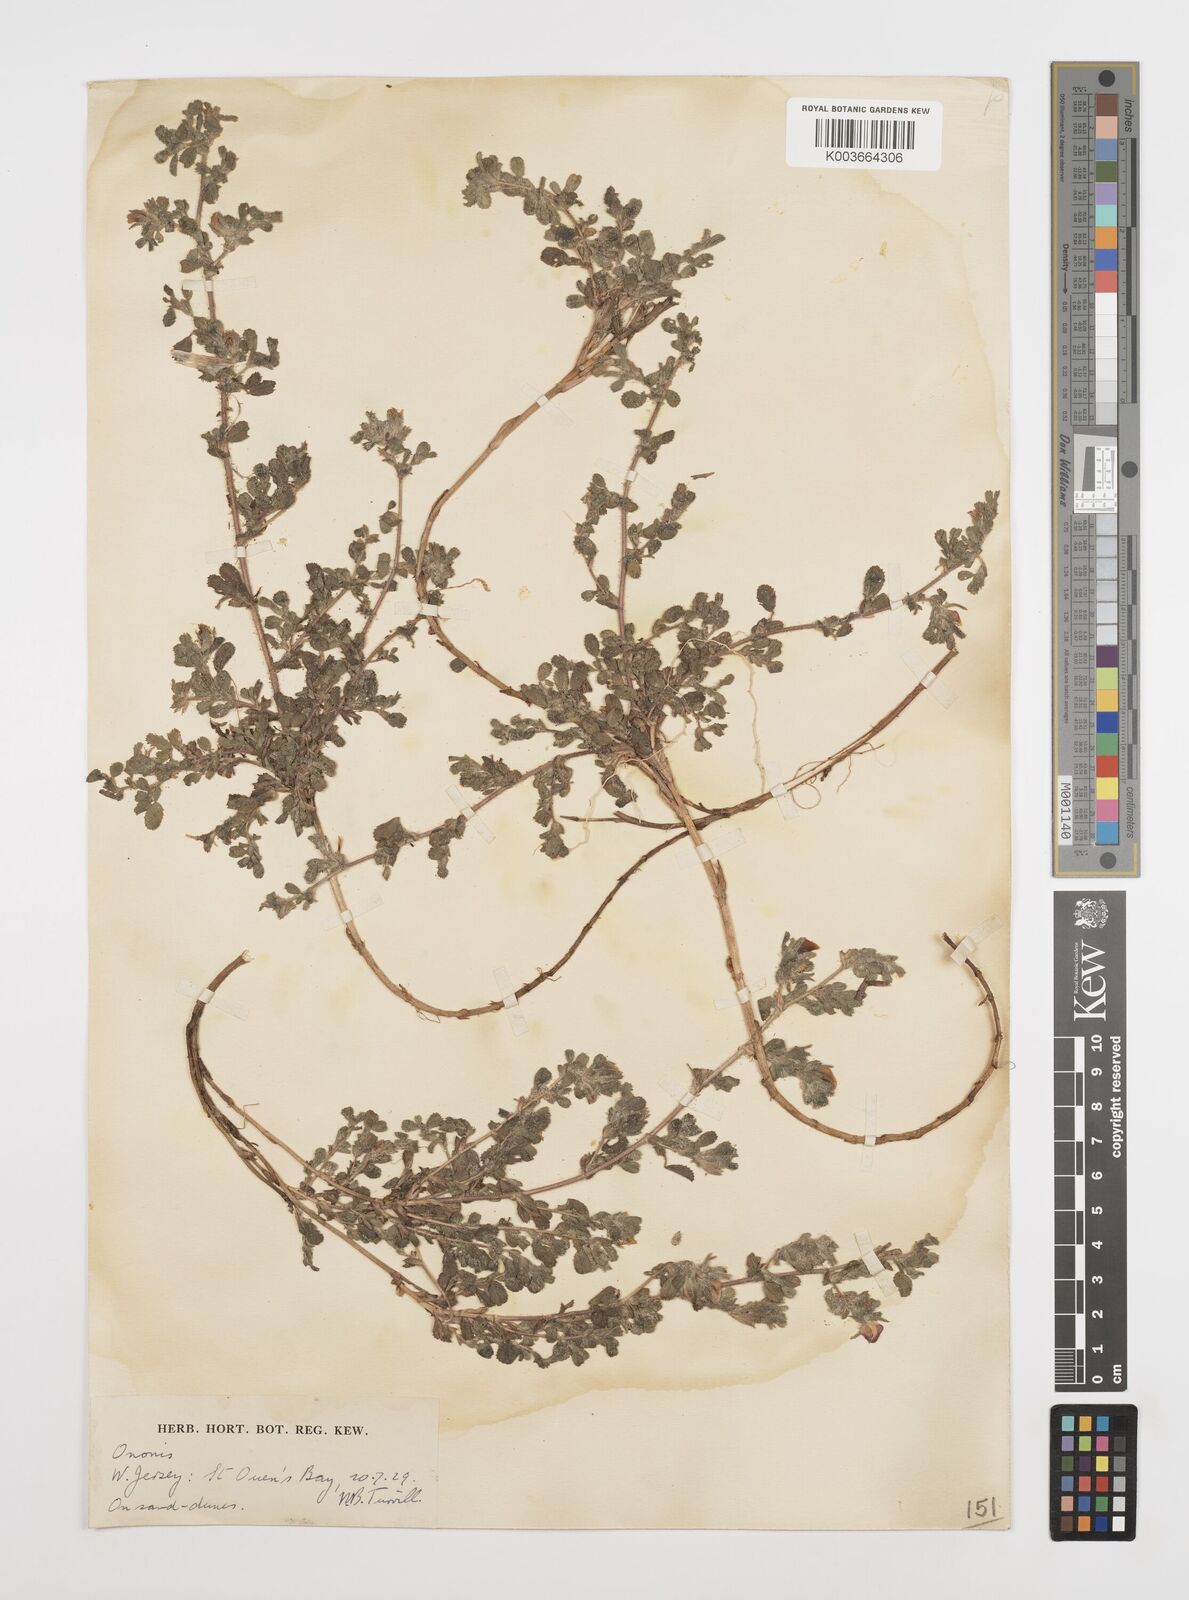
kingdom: Plantae
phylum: Tracheophyta
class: Magnoliopsida
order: Fabales
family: Fabaceae
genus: Ononis
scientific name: Ononis spinosa
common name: Spiny restharrow
